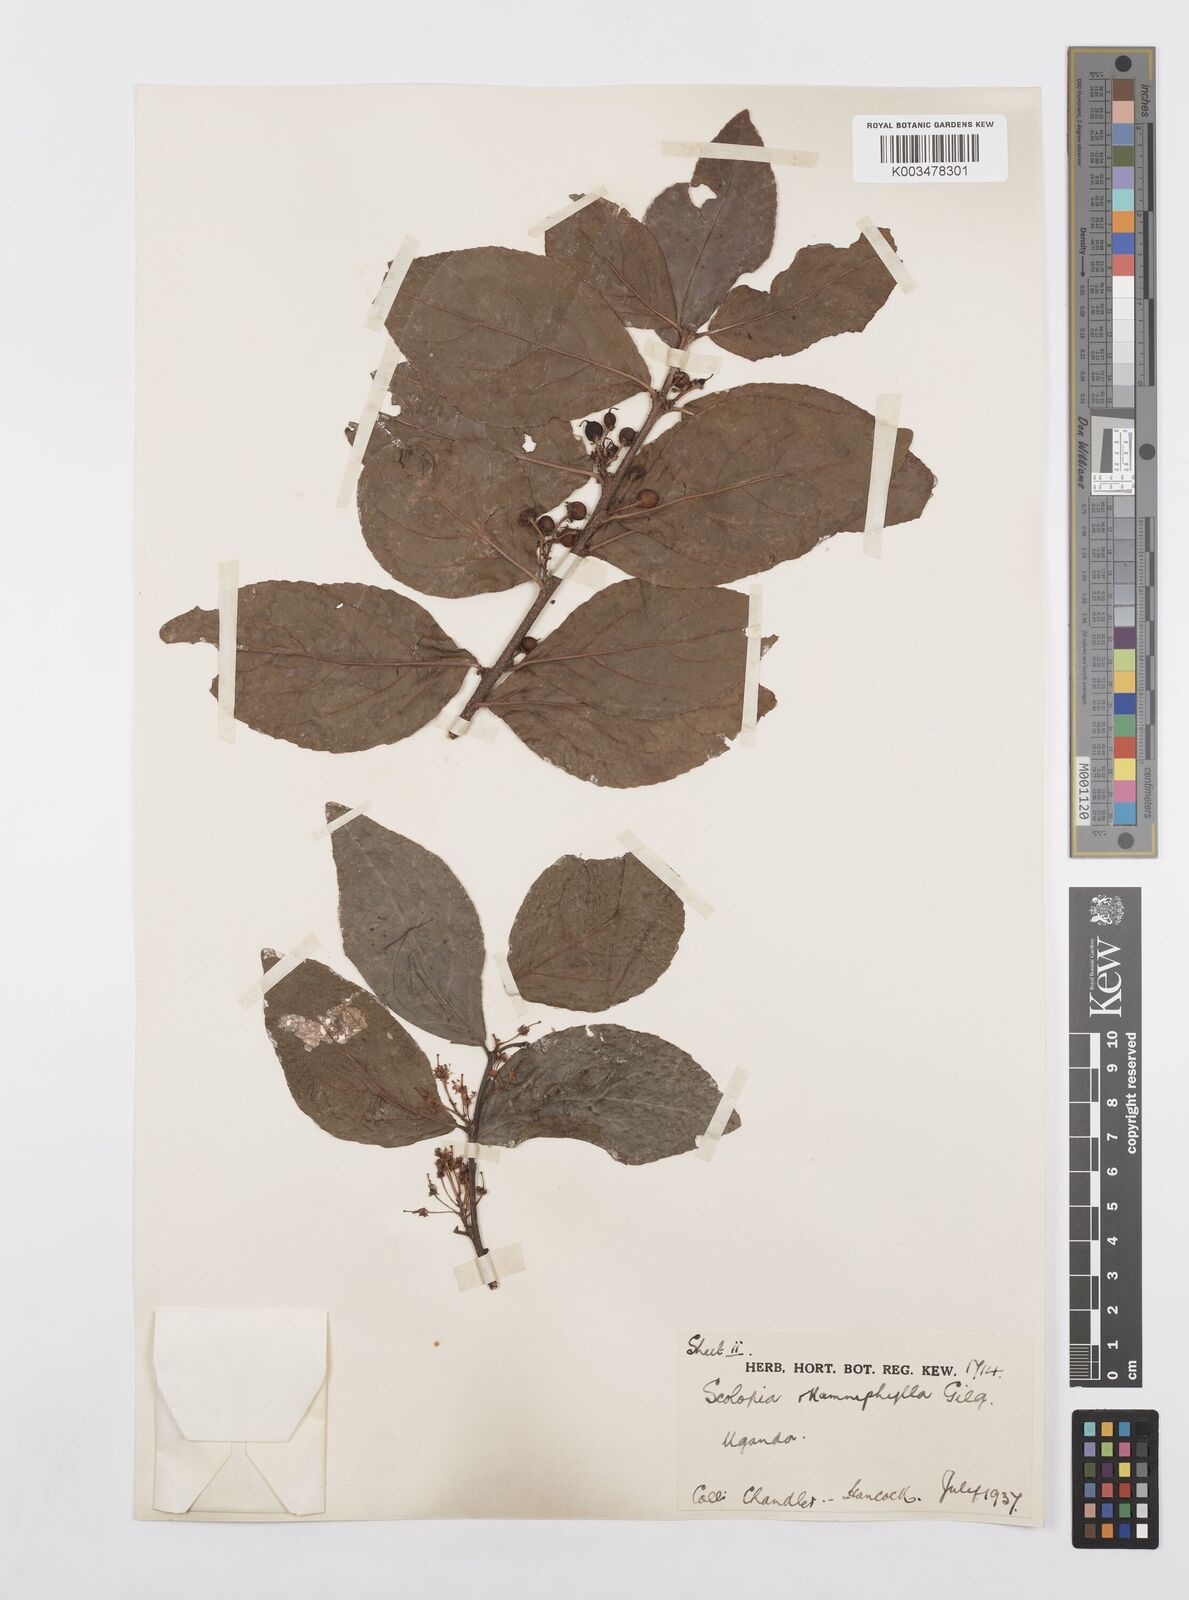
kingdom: Plantae
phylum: Tracheophyta
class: Magnoliopsida
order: Malpighiales
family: Salicaceae
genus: Scolopia
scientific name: Scolopia rhamniphylla
